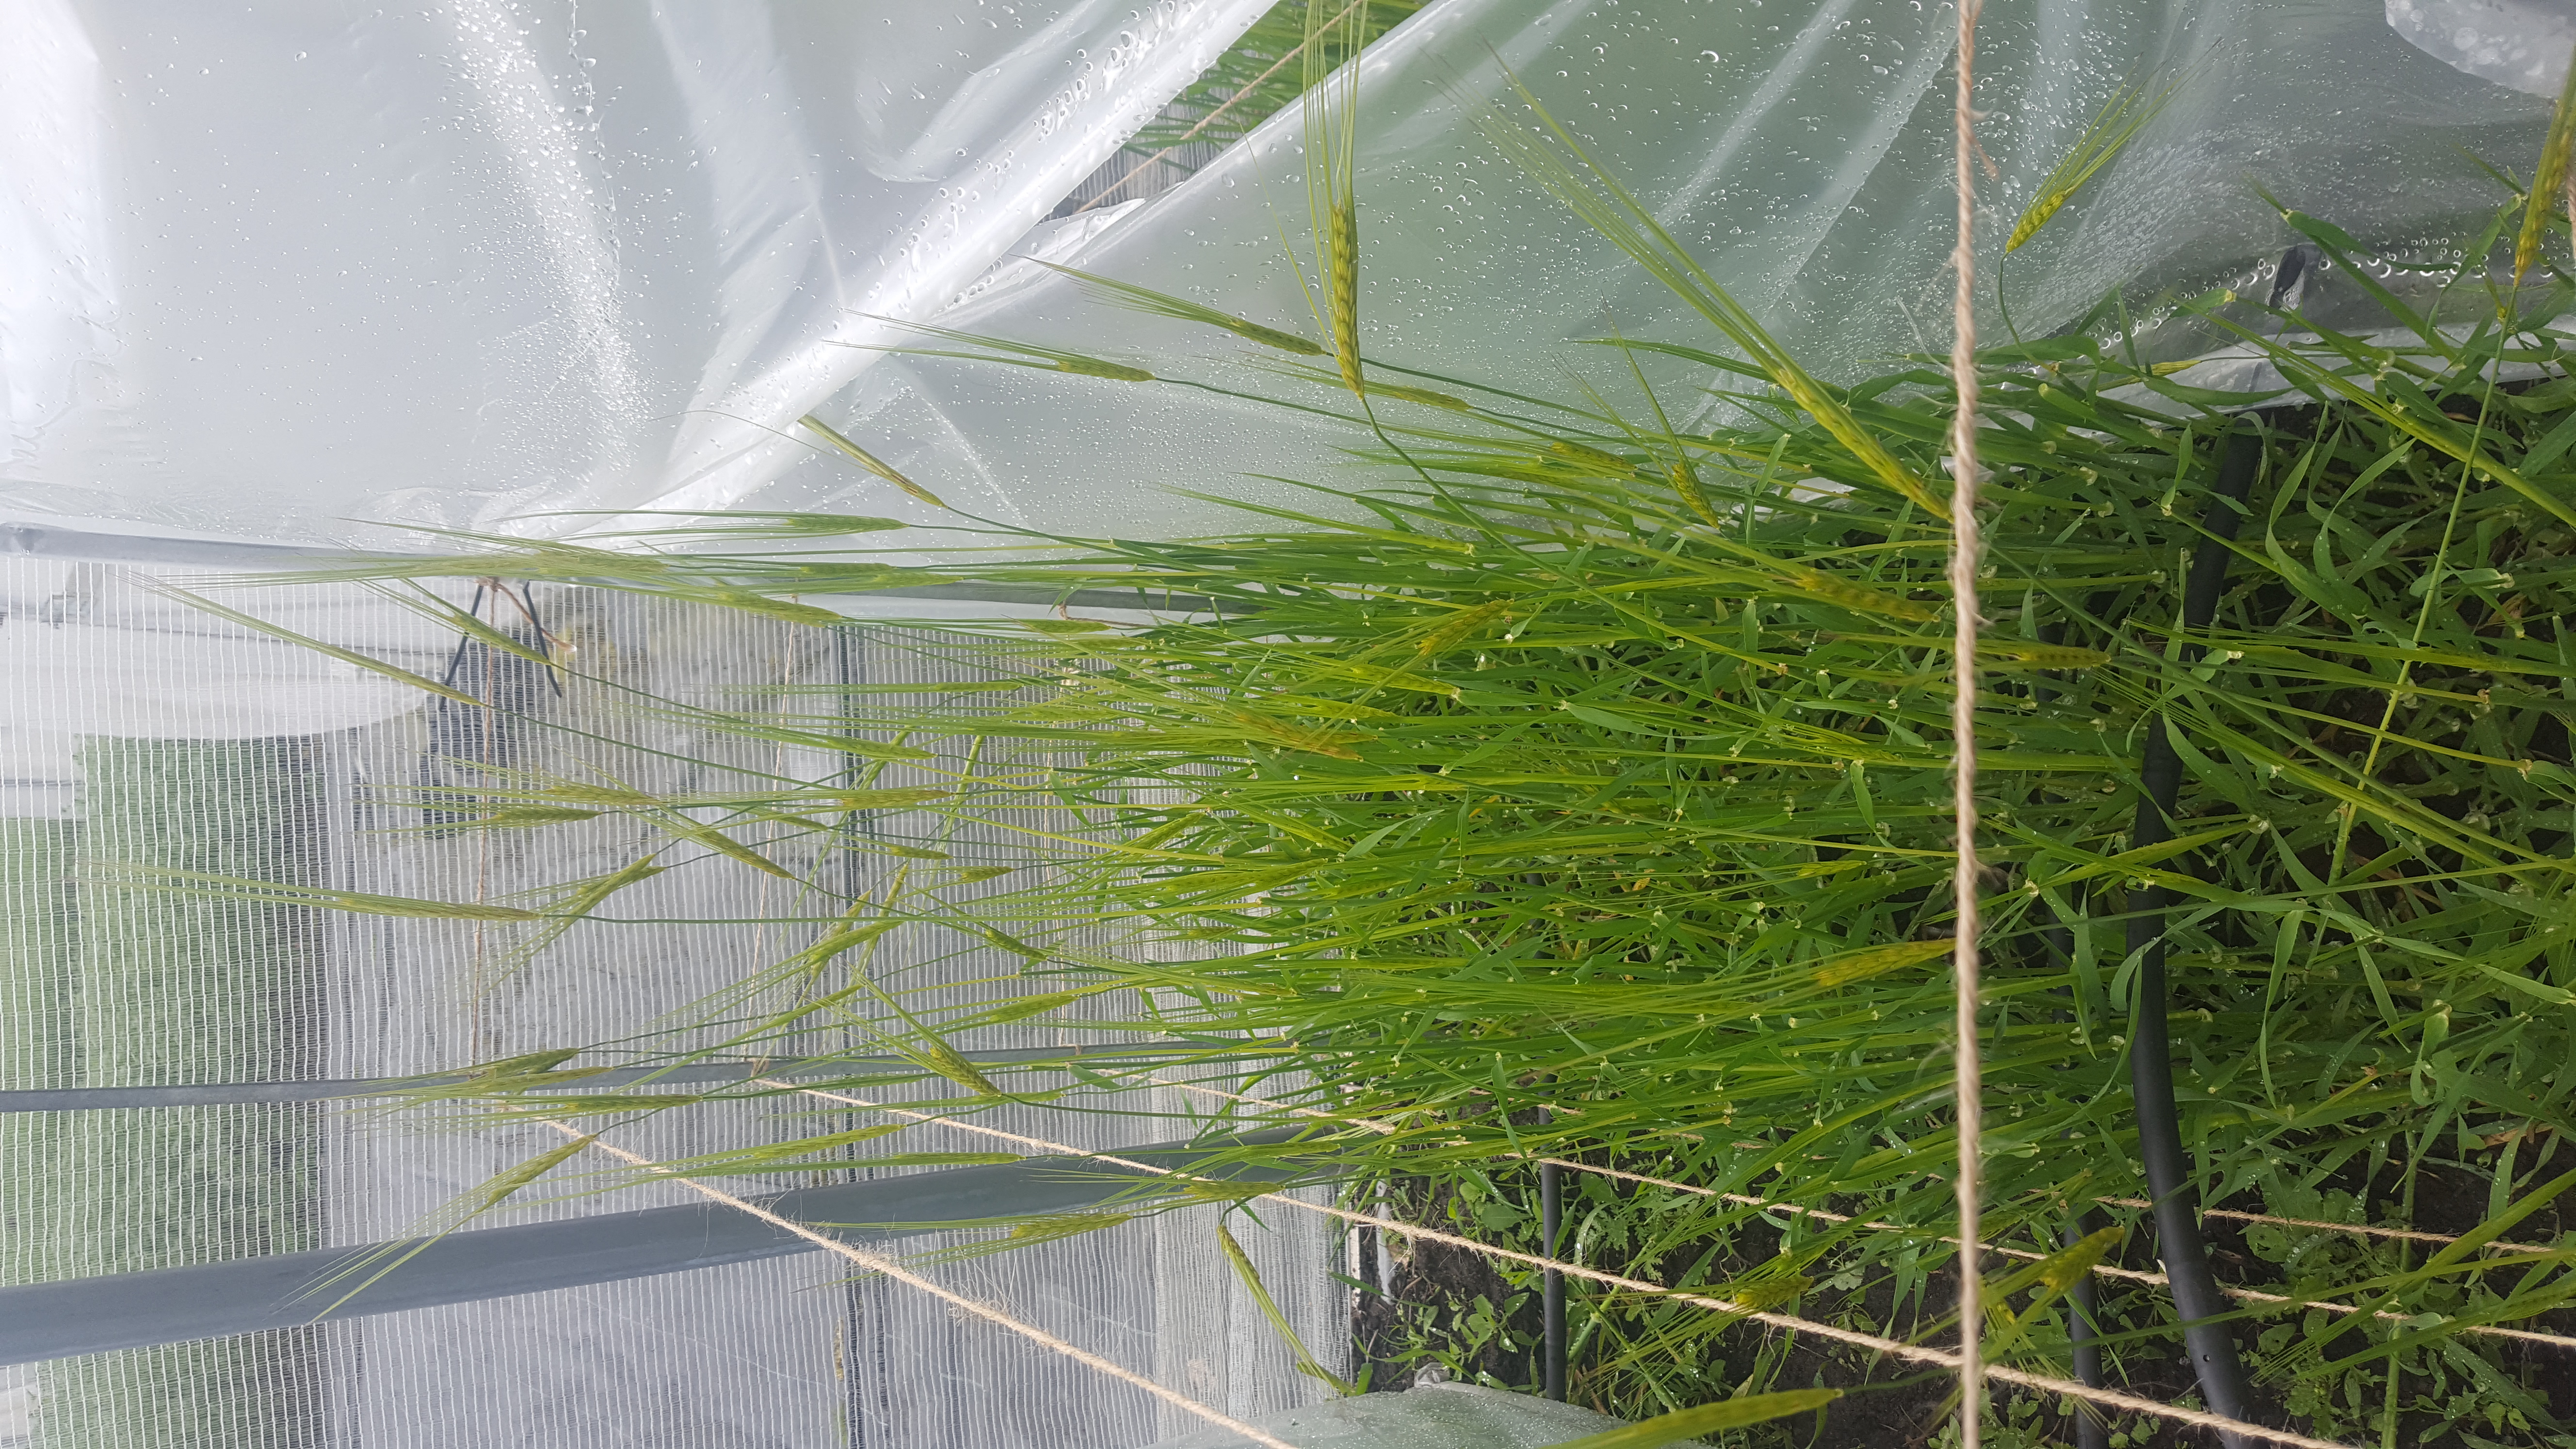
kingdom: Plantae
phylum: Tracheophyta
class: Liliopsida
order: Poales
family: Poaceae
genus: Hordeum
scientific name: Hordeum spontaneum
